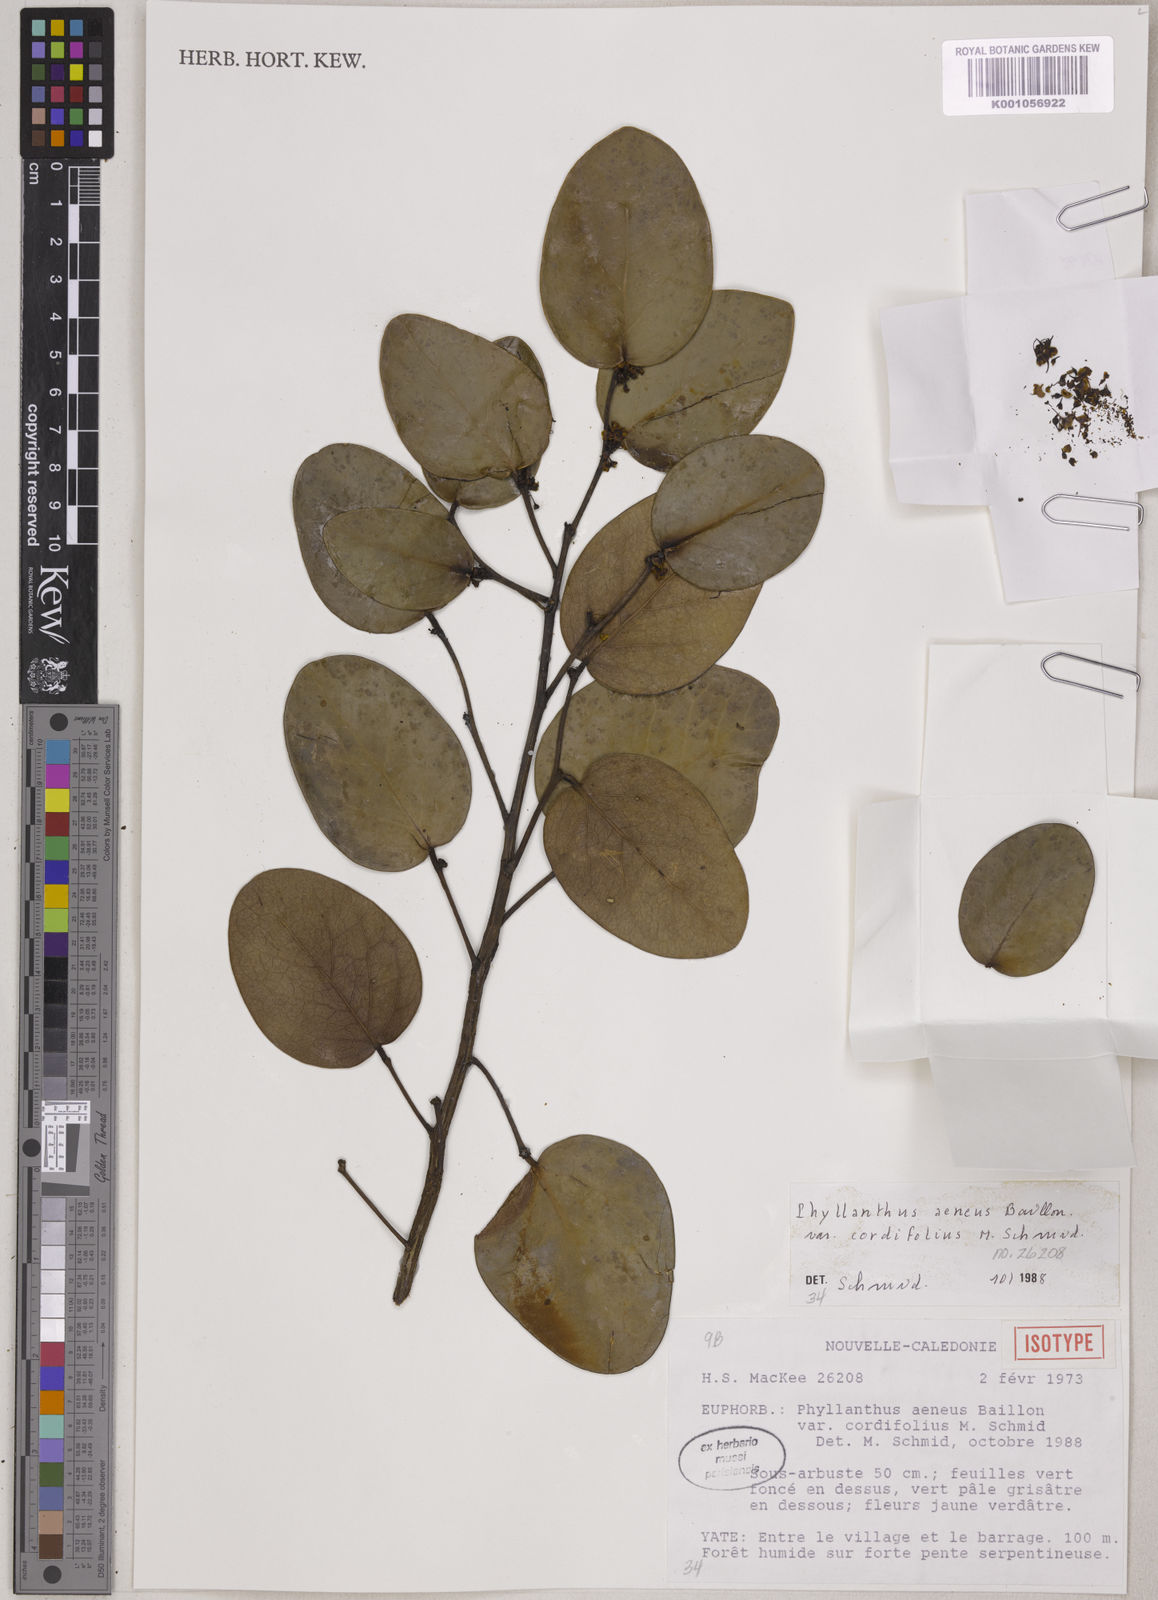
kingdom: Plantae
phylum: Tracheophyta
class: Magnoliopsida
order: Malpighiales
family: Phyllanthaceae
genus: Phyllanthus
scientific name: Phyllanthus aeneus
